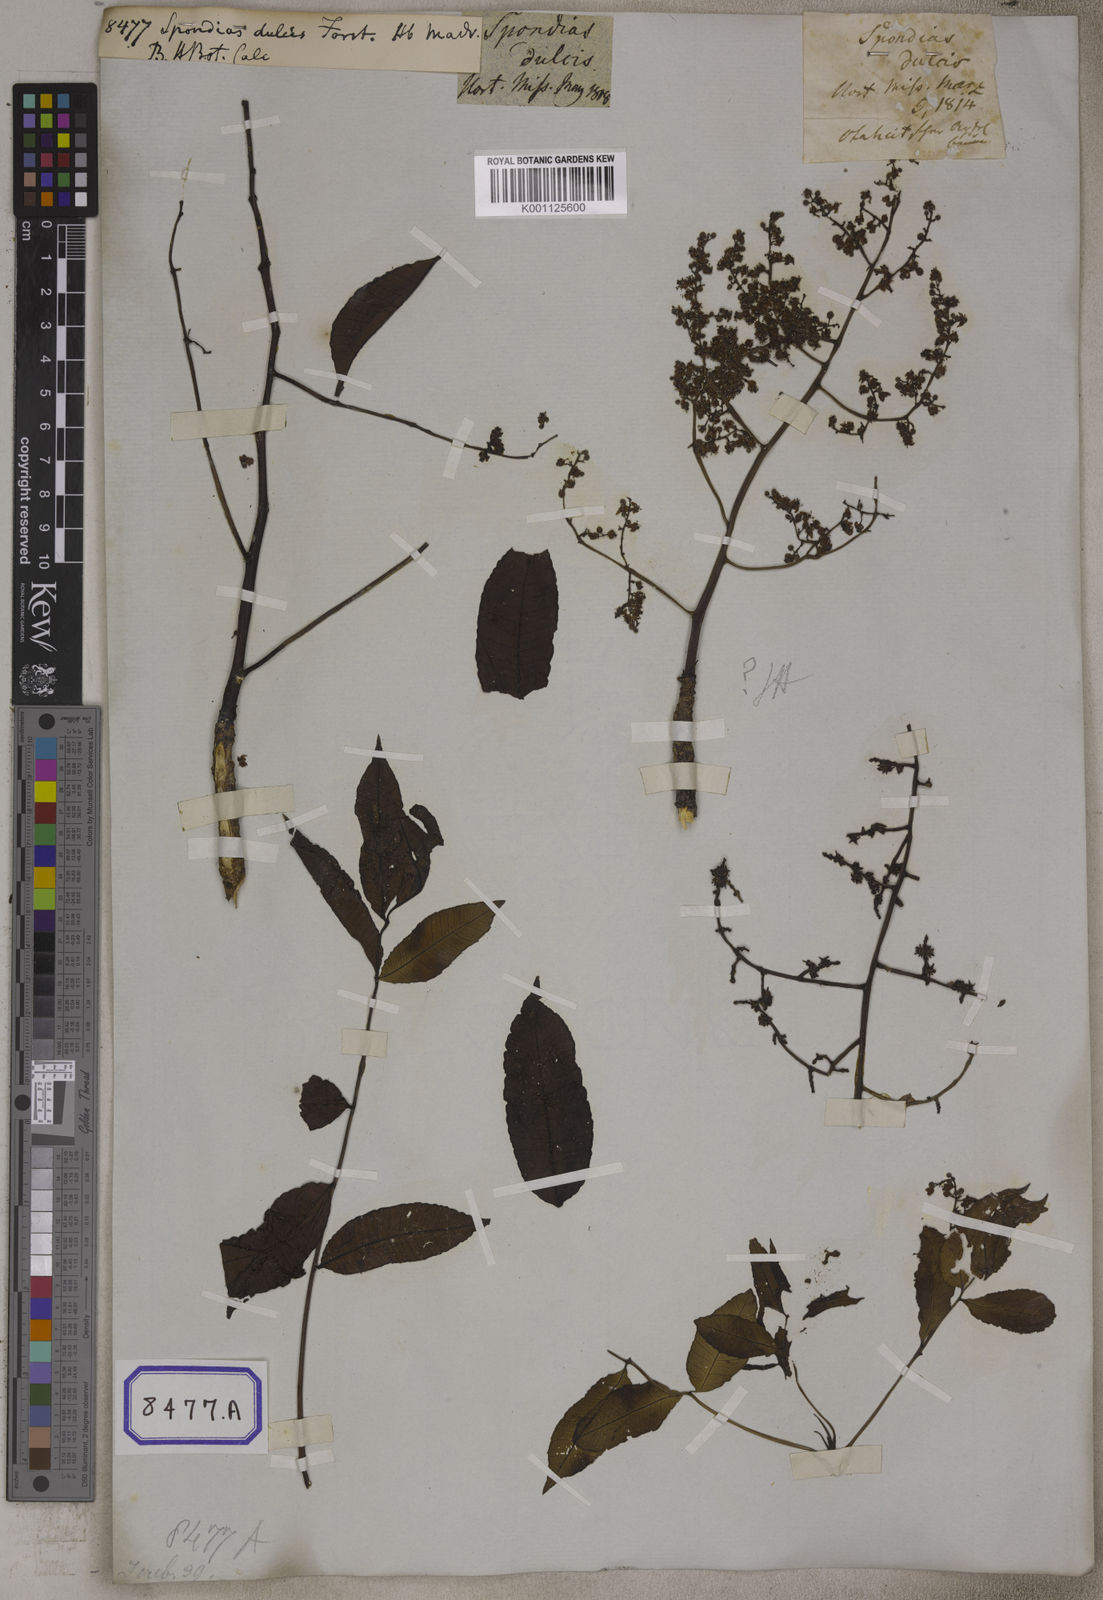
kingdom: Plantae
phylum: Tracheophyta
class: Magnoliopsida
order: Sapindales
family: Anacardiaceae
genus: Spondias
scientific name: Spondias
